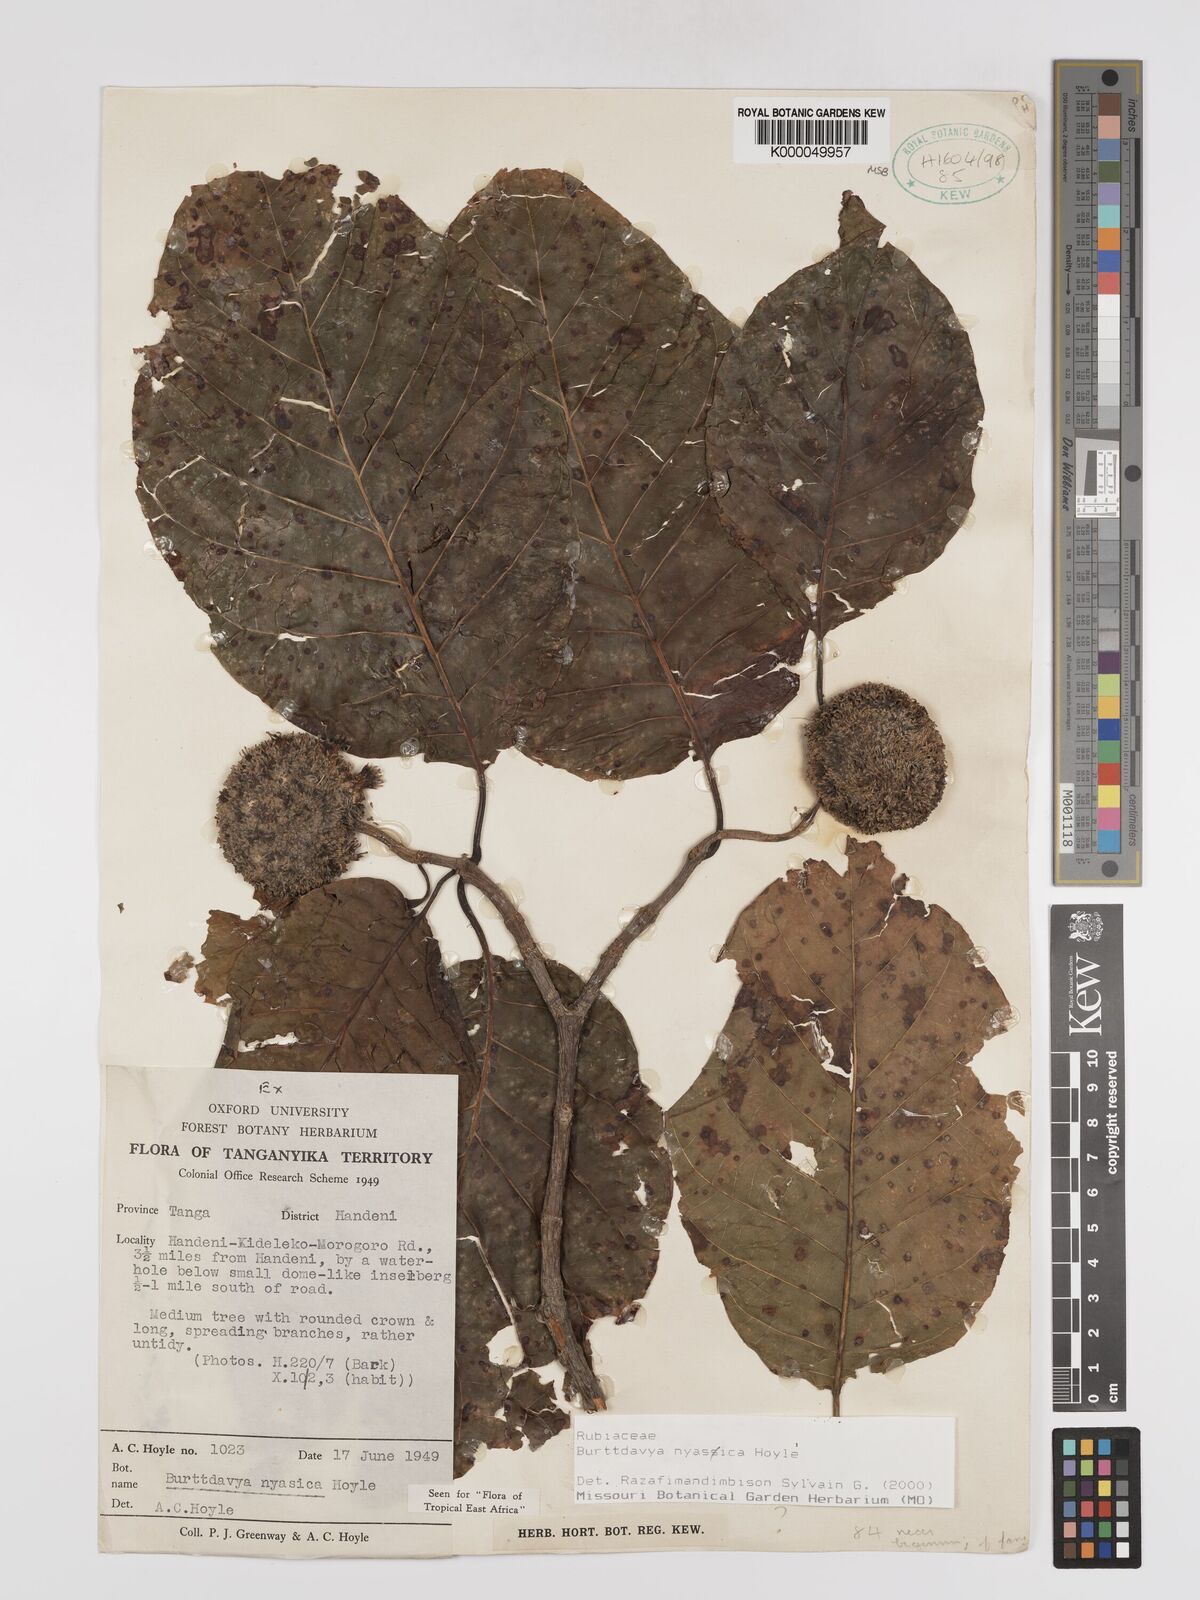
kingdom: Plantae
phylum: Tracheophyta
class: Magnoliopsida
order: Gentianales
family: Rubiaceae
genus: Nauclea
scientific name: Nauclea
